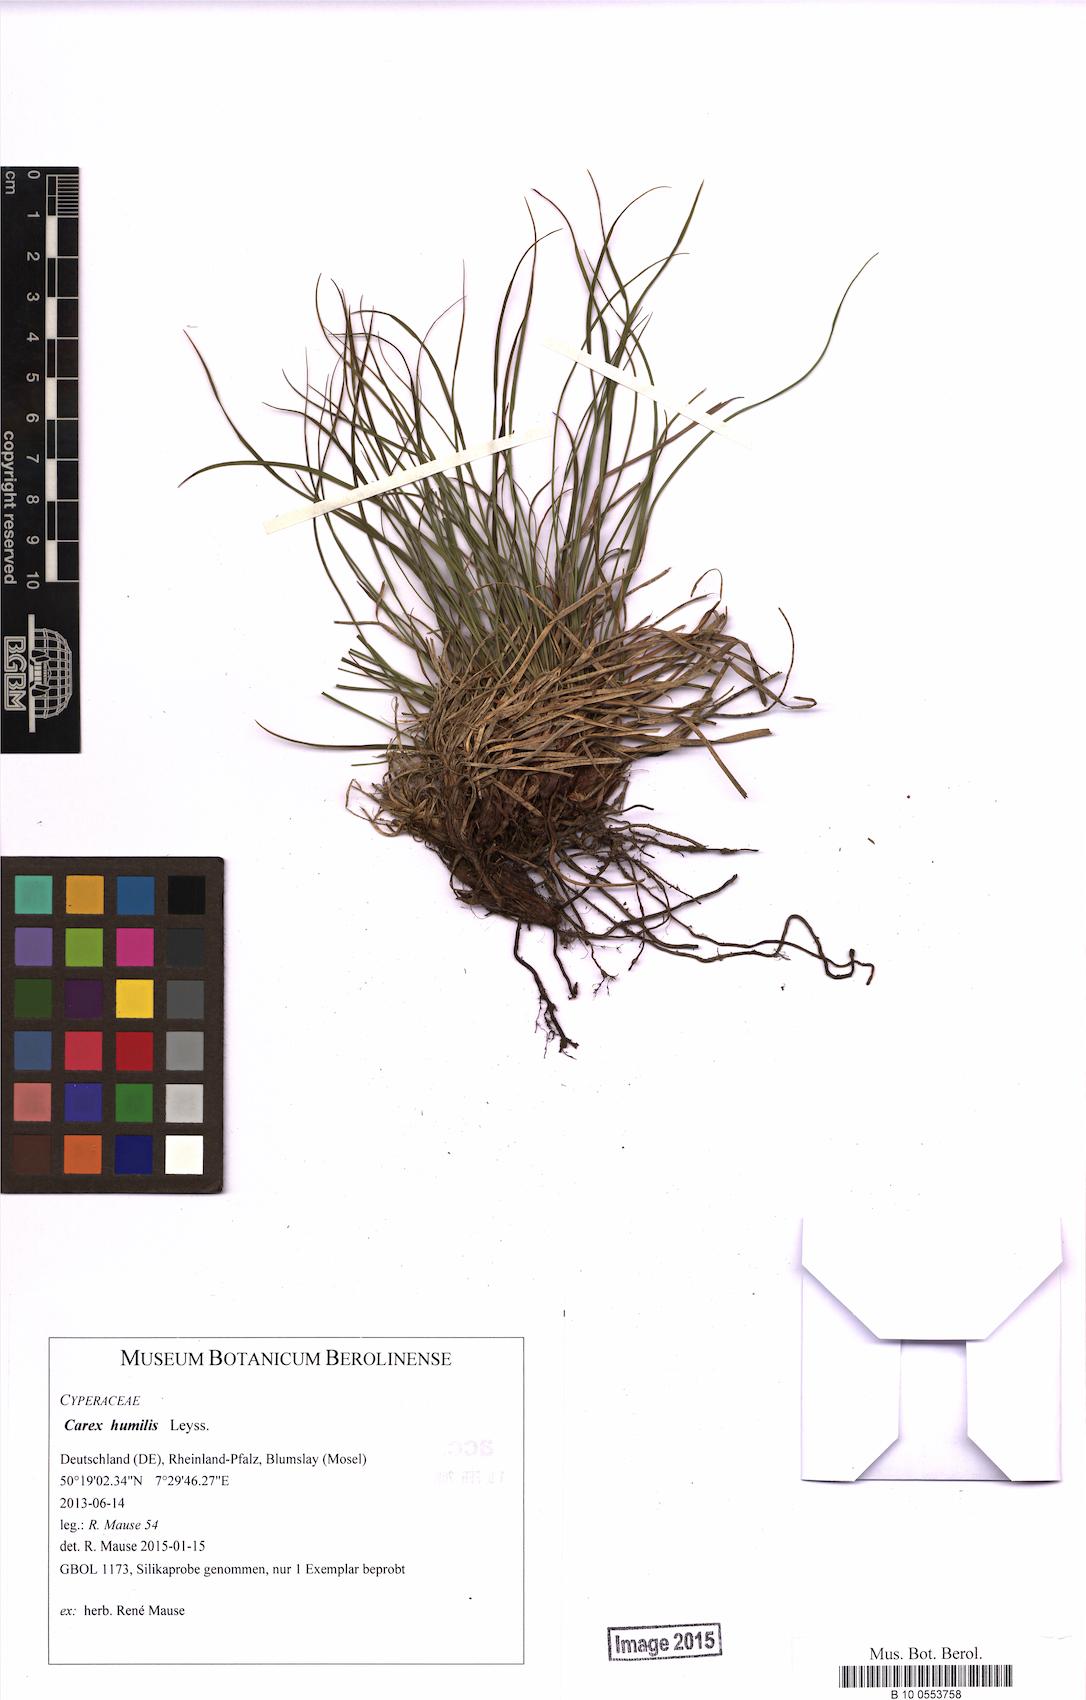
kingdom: Plantae
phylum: Tracheophyta
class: Liliopsida
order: Poales
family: Cyperaceae
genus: Carex
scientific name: Carex humilis
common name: Dwarf sedge
